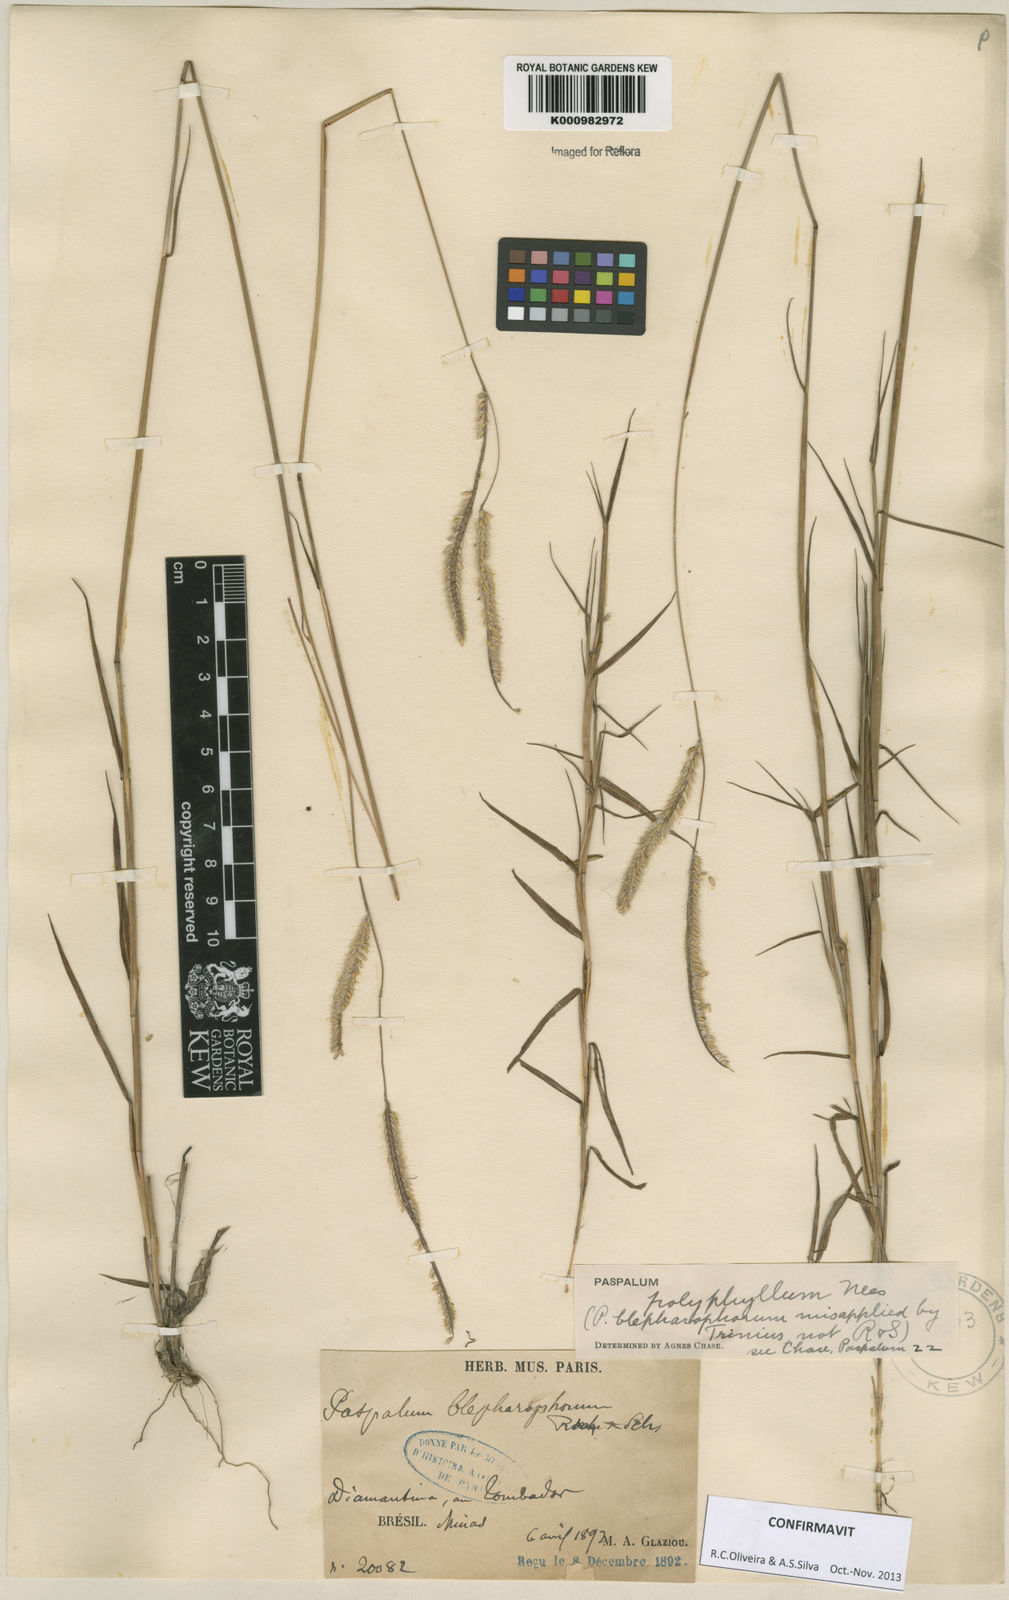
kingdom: Plantae
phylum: Tracheophyta
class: Liliopsida
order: Poales
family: Poaceae
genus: Paspalum
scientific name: Paspalum
